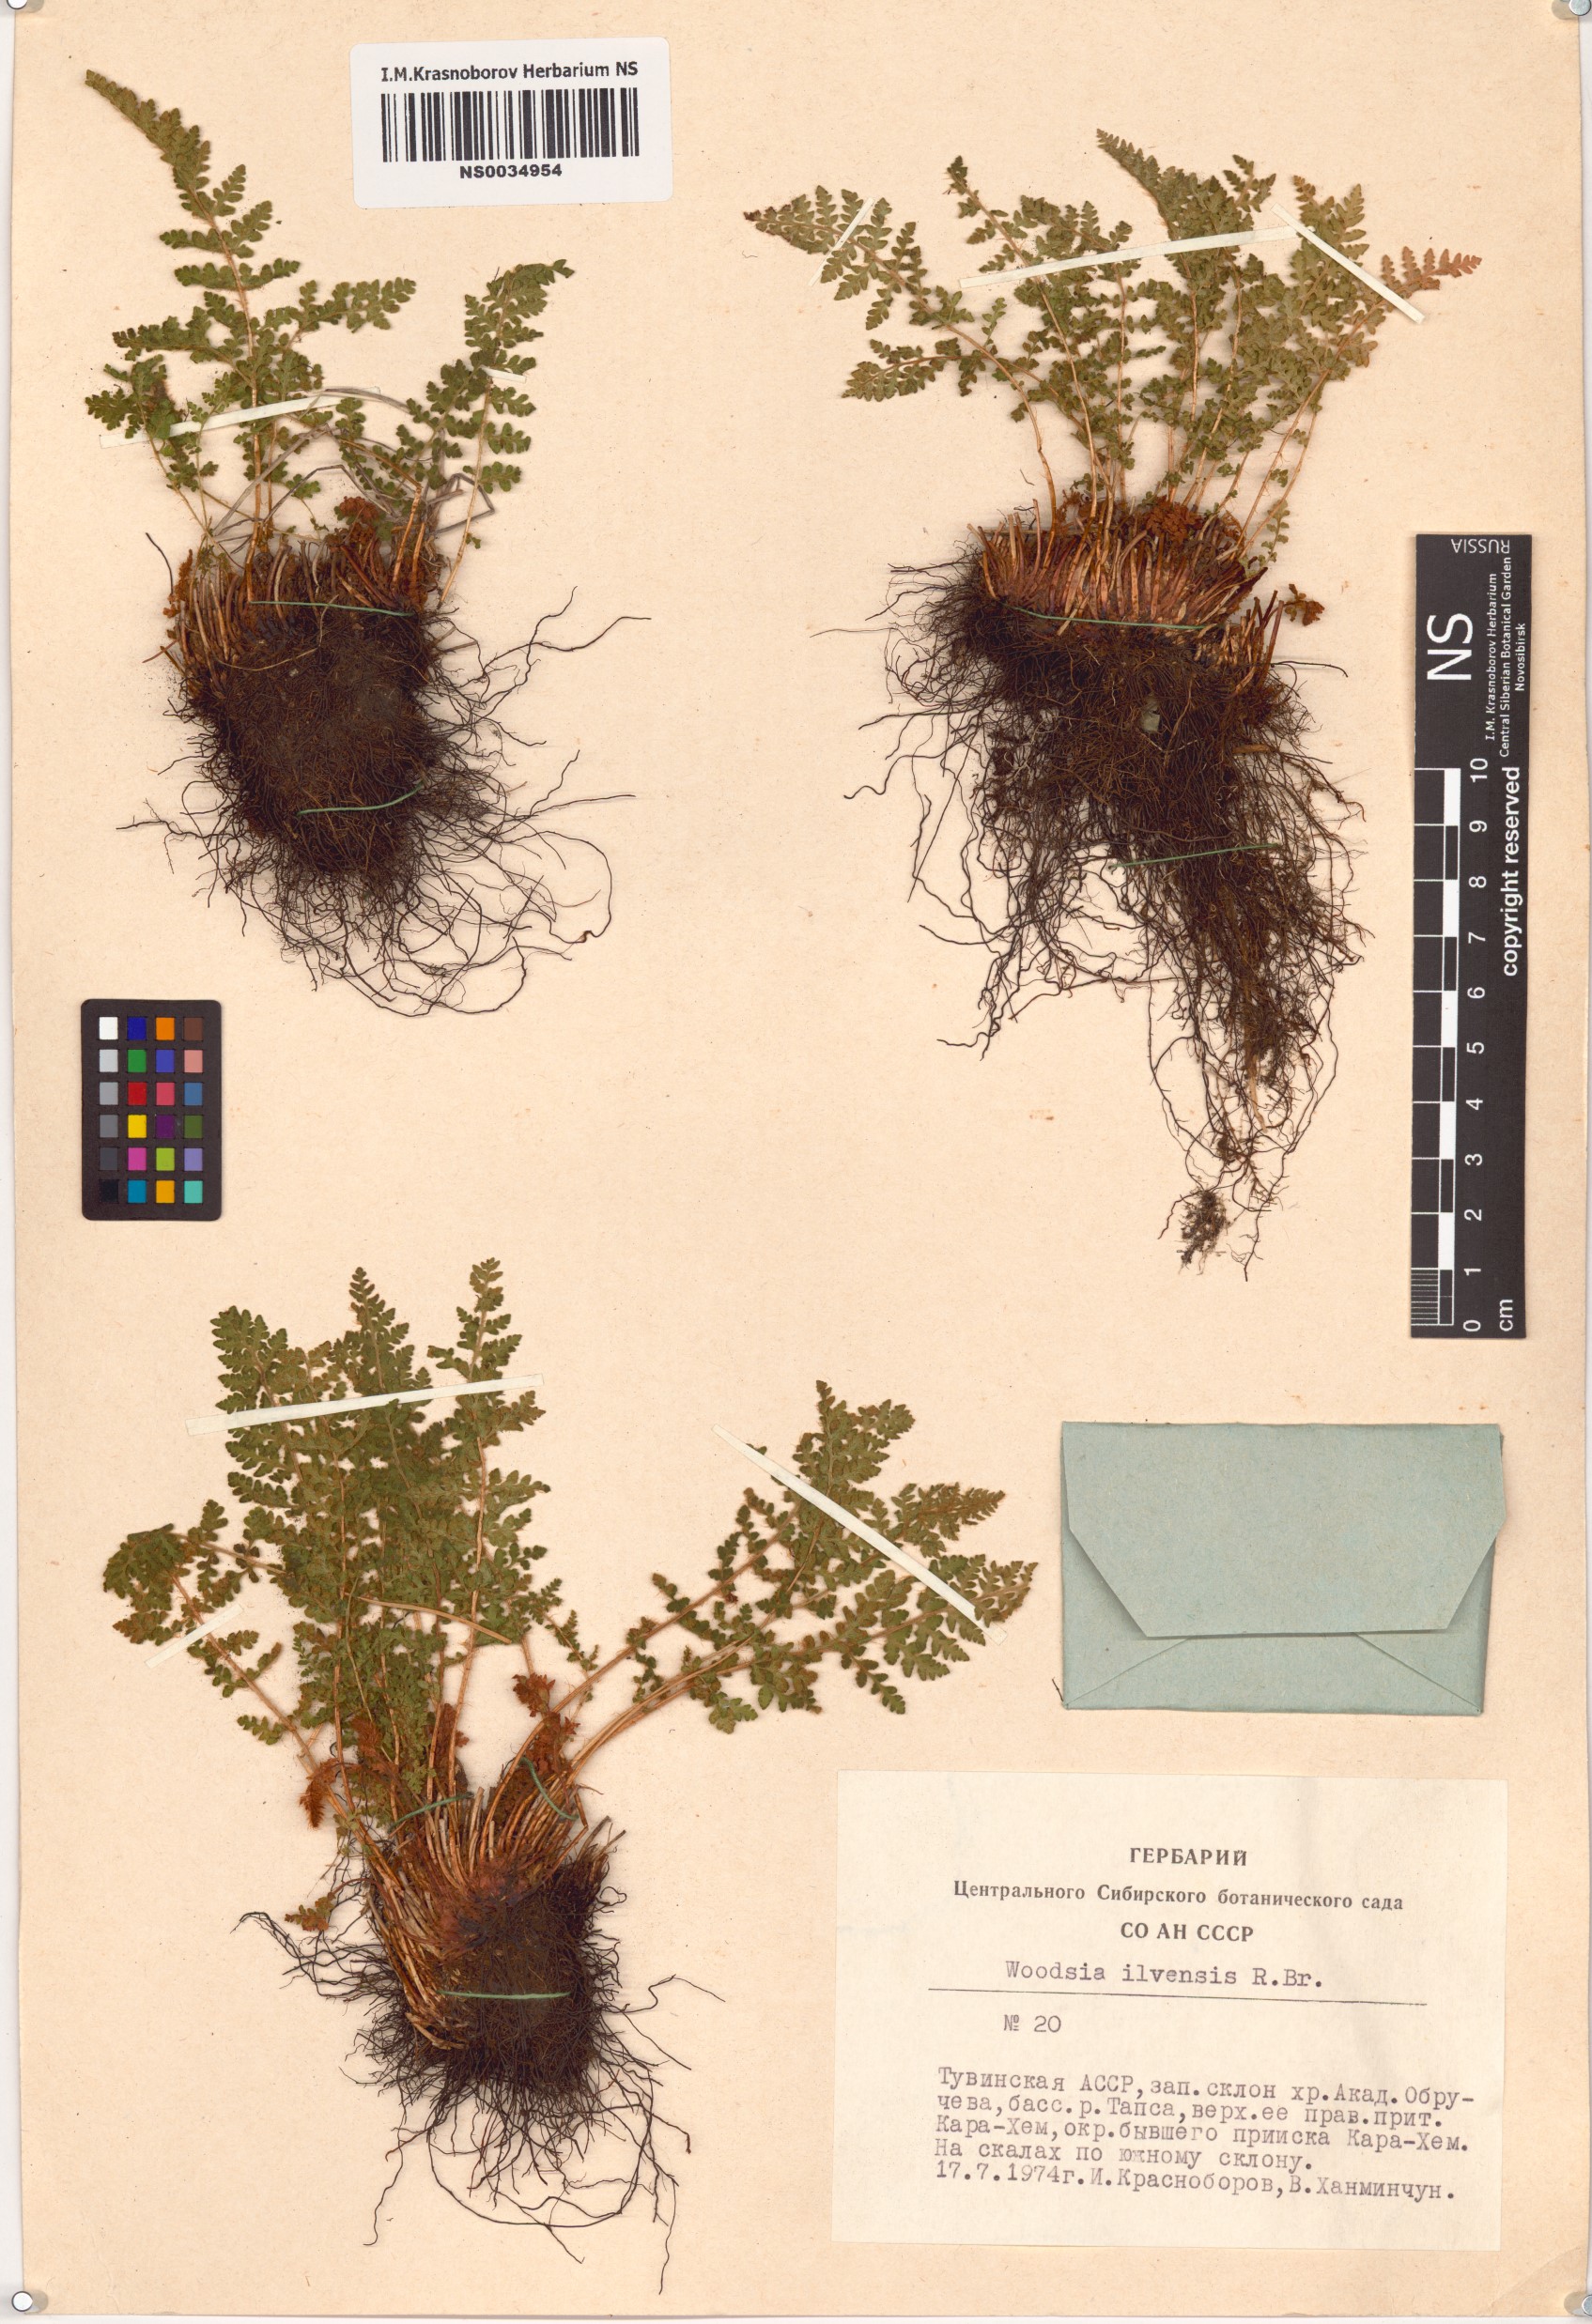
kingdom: Plantae
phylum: Tracheophyta
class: Polypodiopsida
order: Polypodiales
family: Woodsiaceae
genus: Woodsia
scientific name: Woodsia ilvensis
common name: Fragrant woodsia
